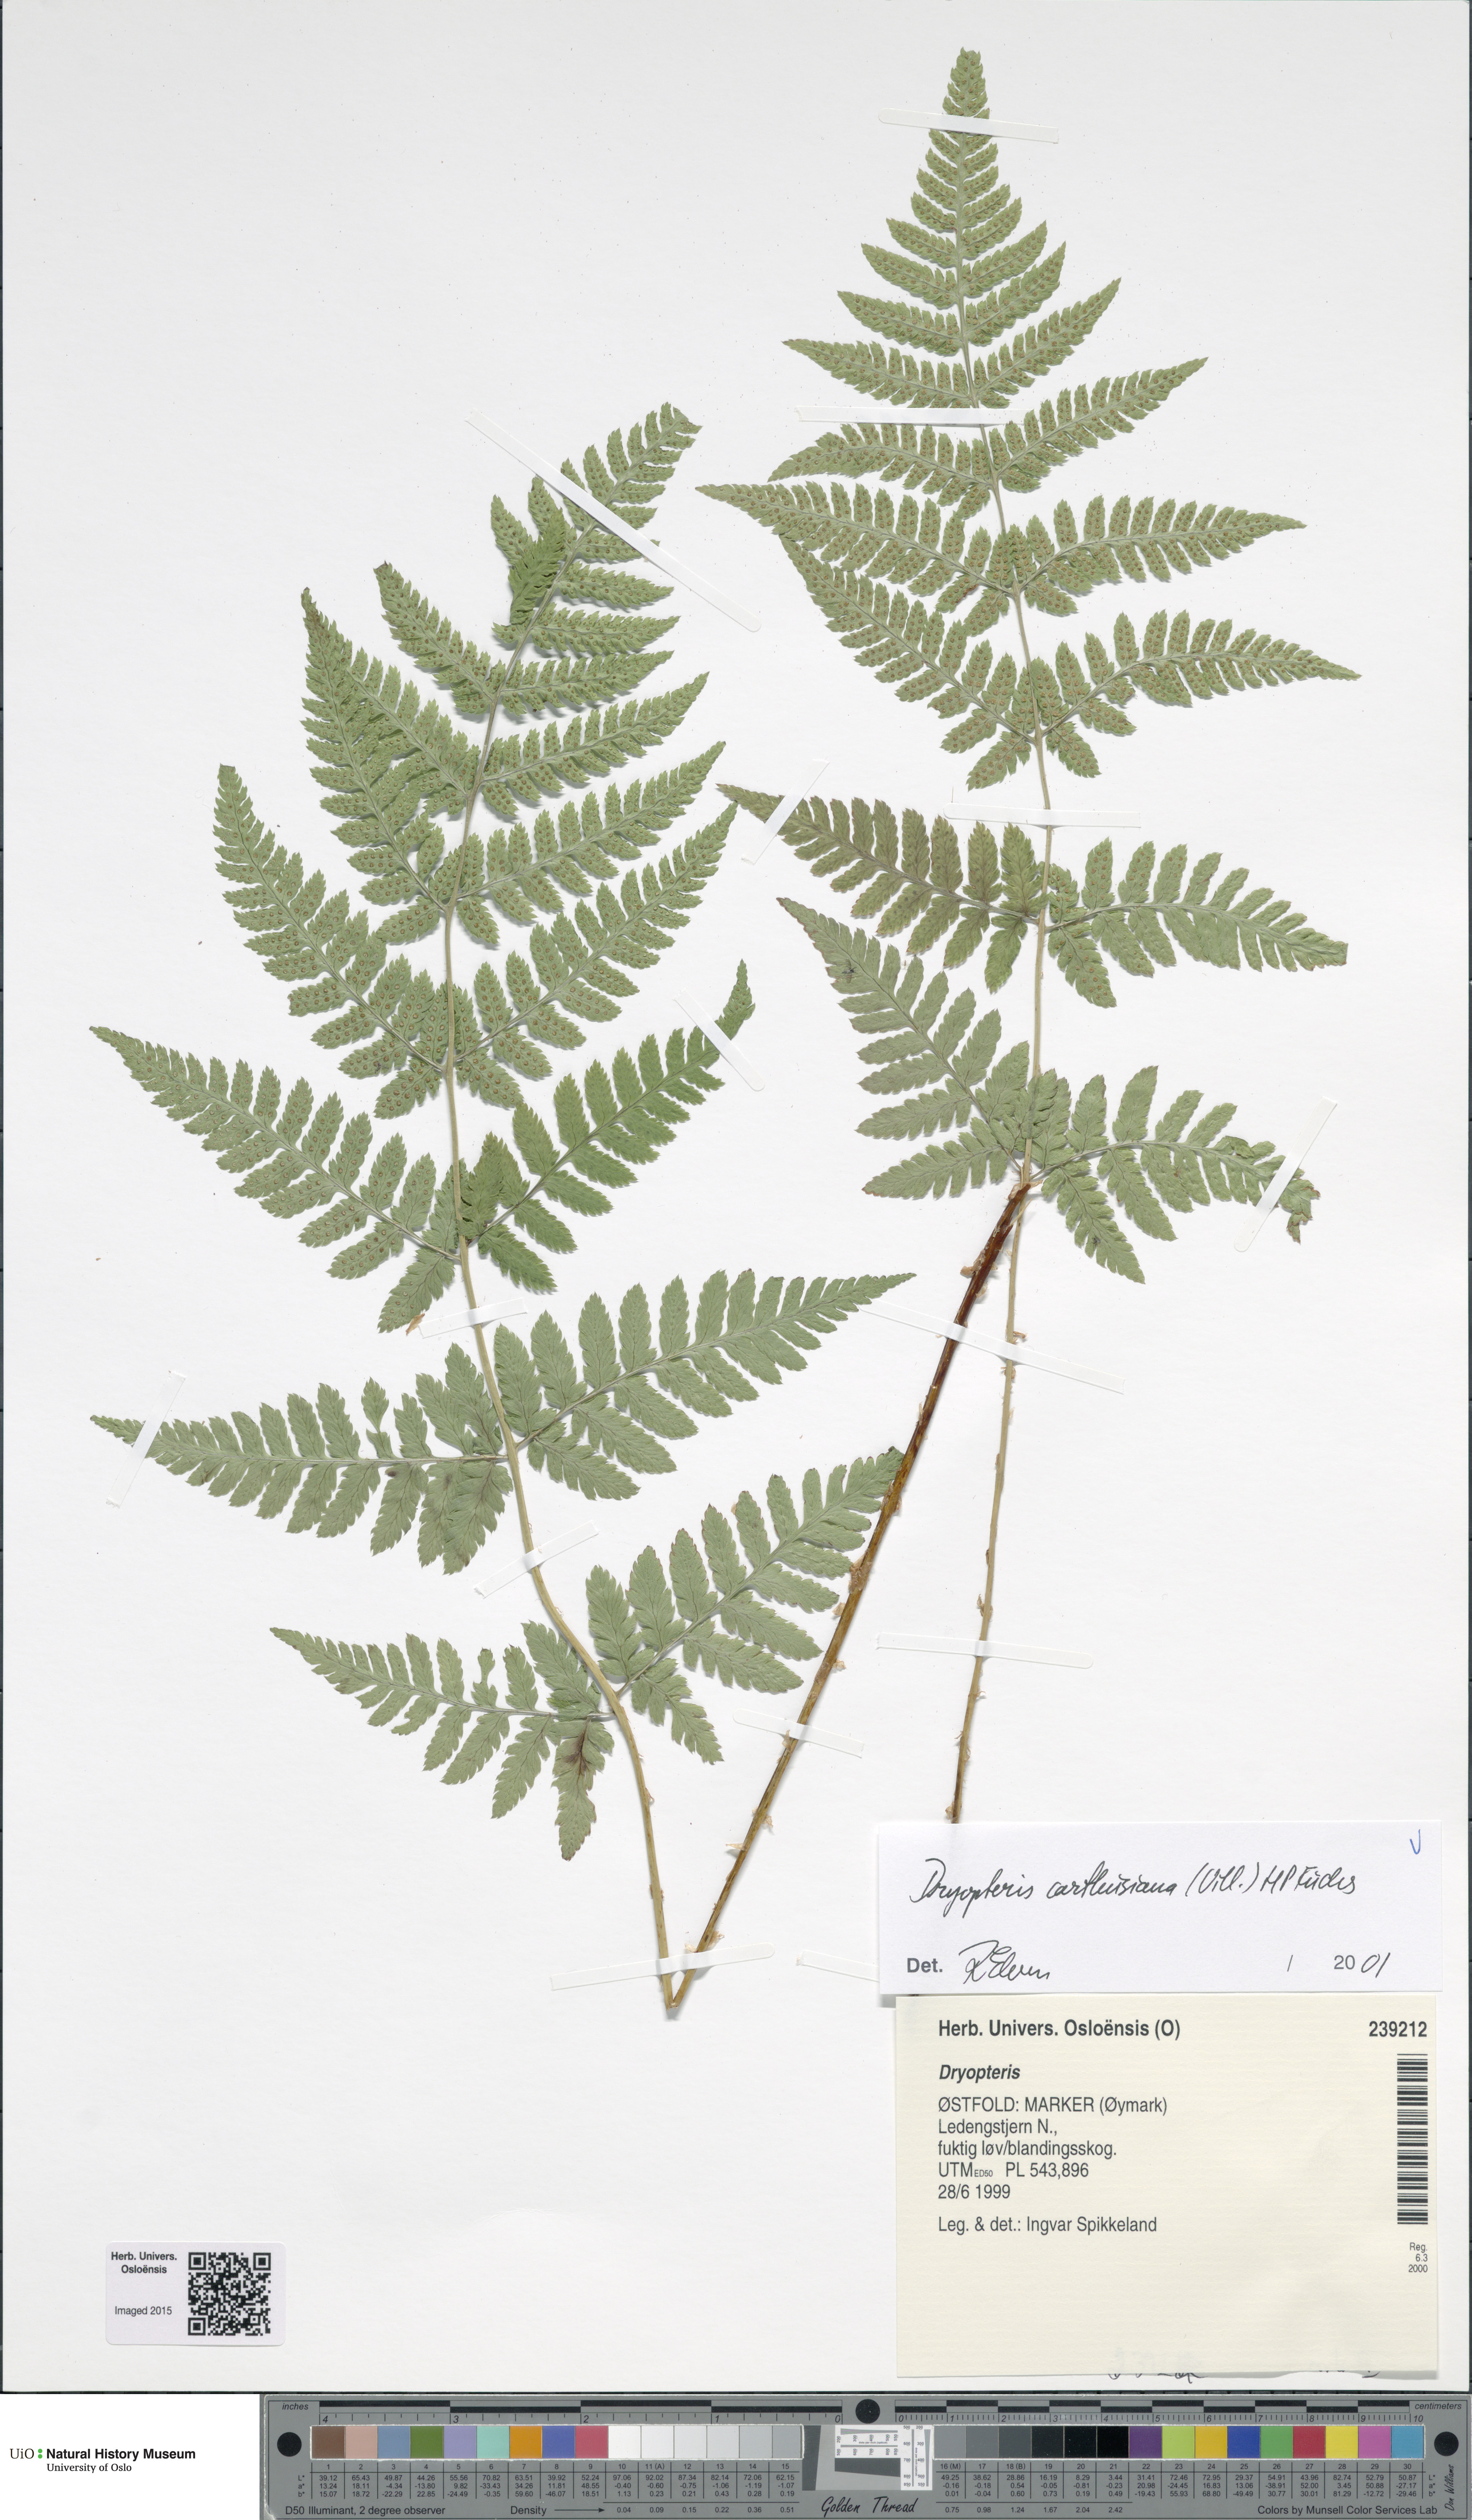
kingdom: Plantae
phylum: Tracheophyta
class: Polypodiopsida
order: Polypodiales
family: Dryopteridaceae
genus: Dryopteris
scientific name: Dryopteris carthusiana
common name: Narrow buckler-fern
